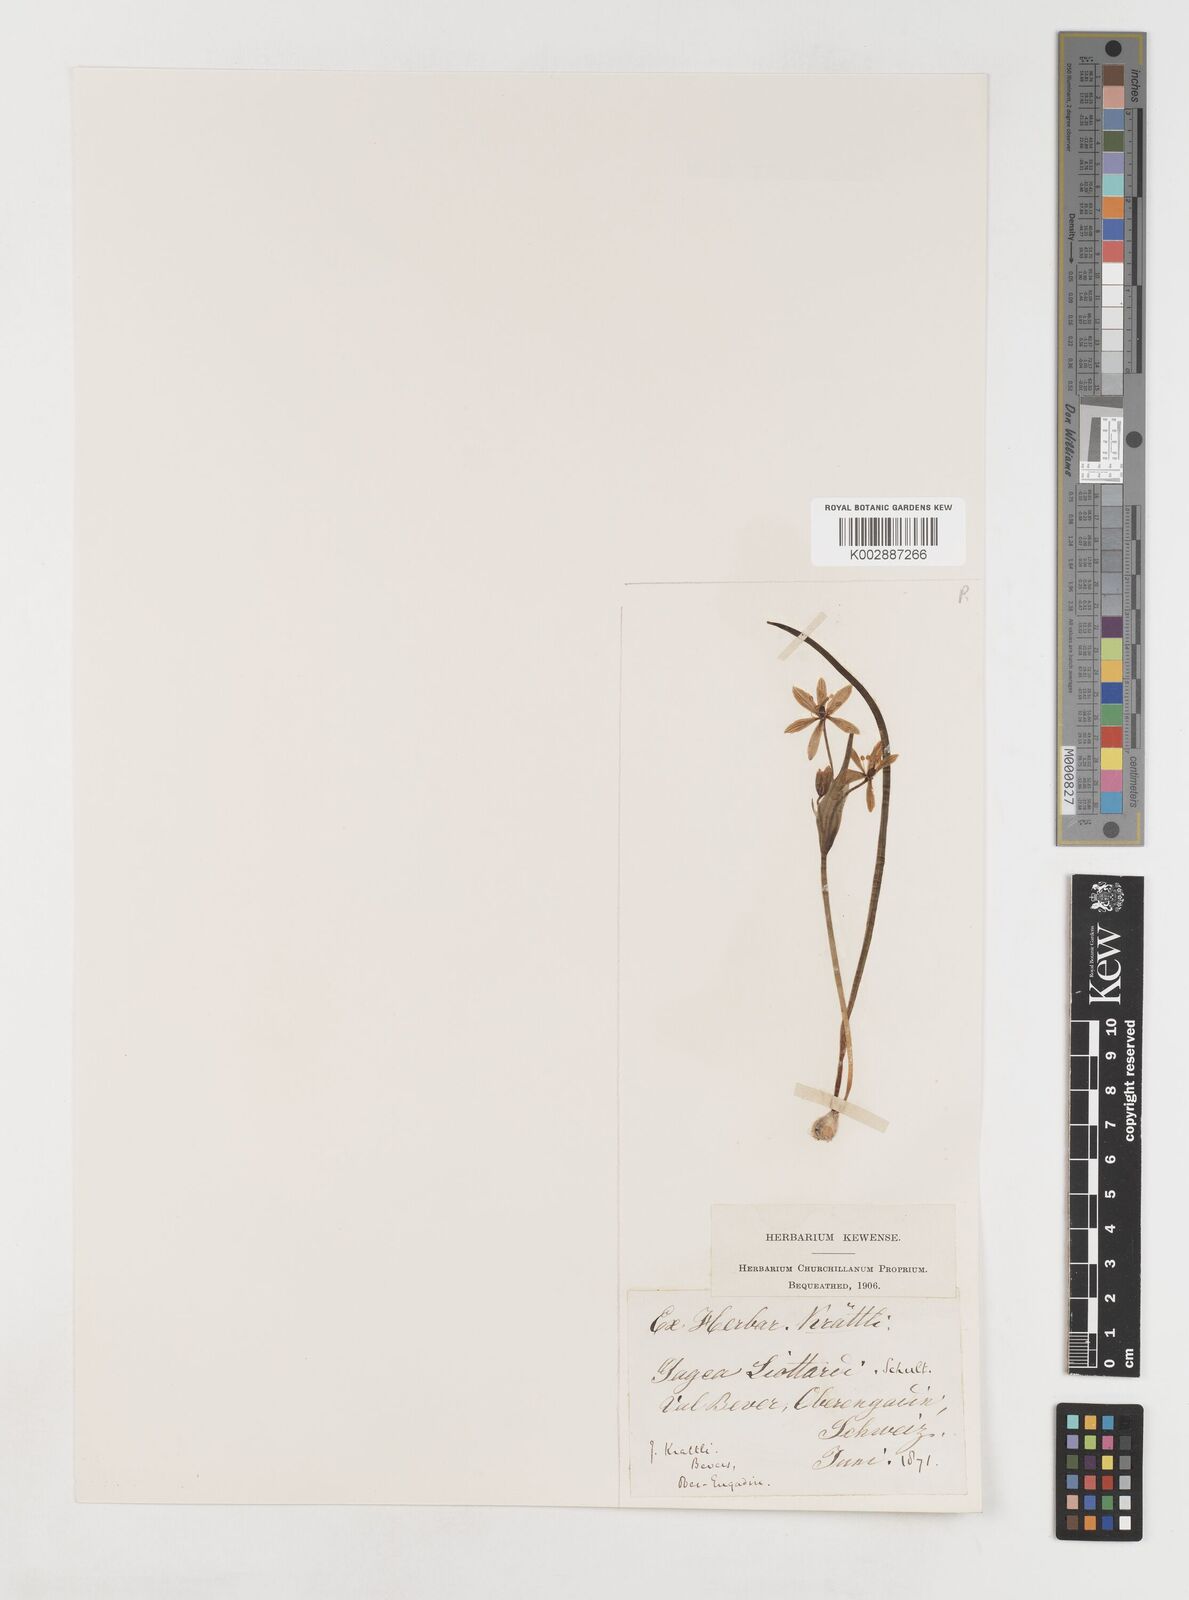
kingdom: Plantae
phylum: Tracheophyta
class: Liliopsida
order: Liliales
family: Liliaceae
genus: Gagea
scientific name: Gagea bohemica
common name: Early star-of-bethlehem
